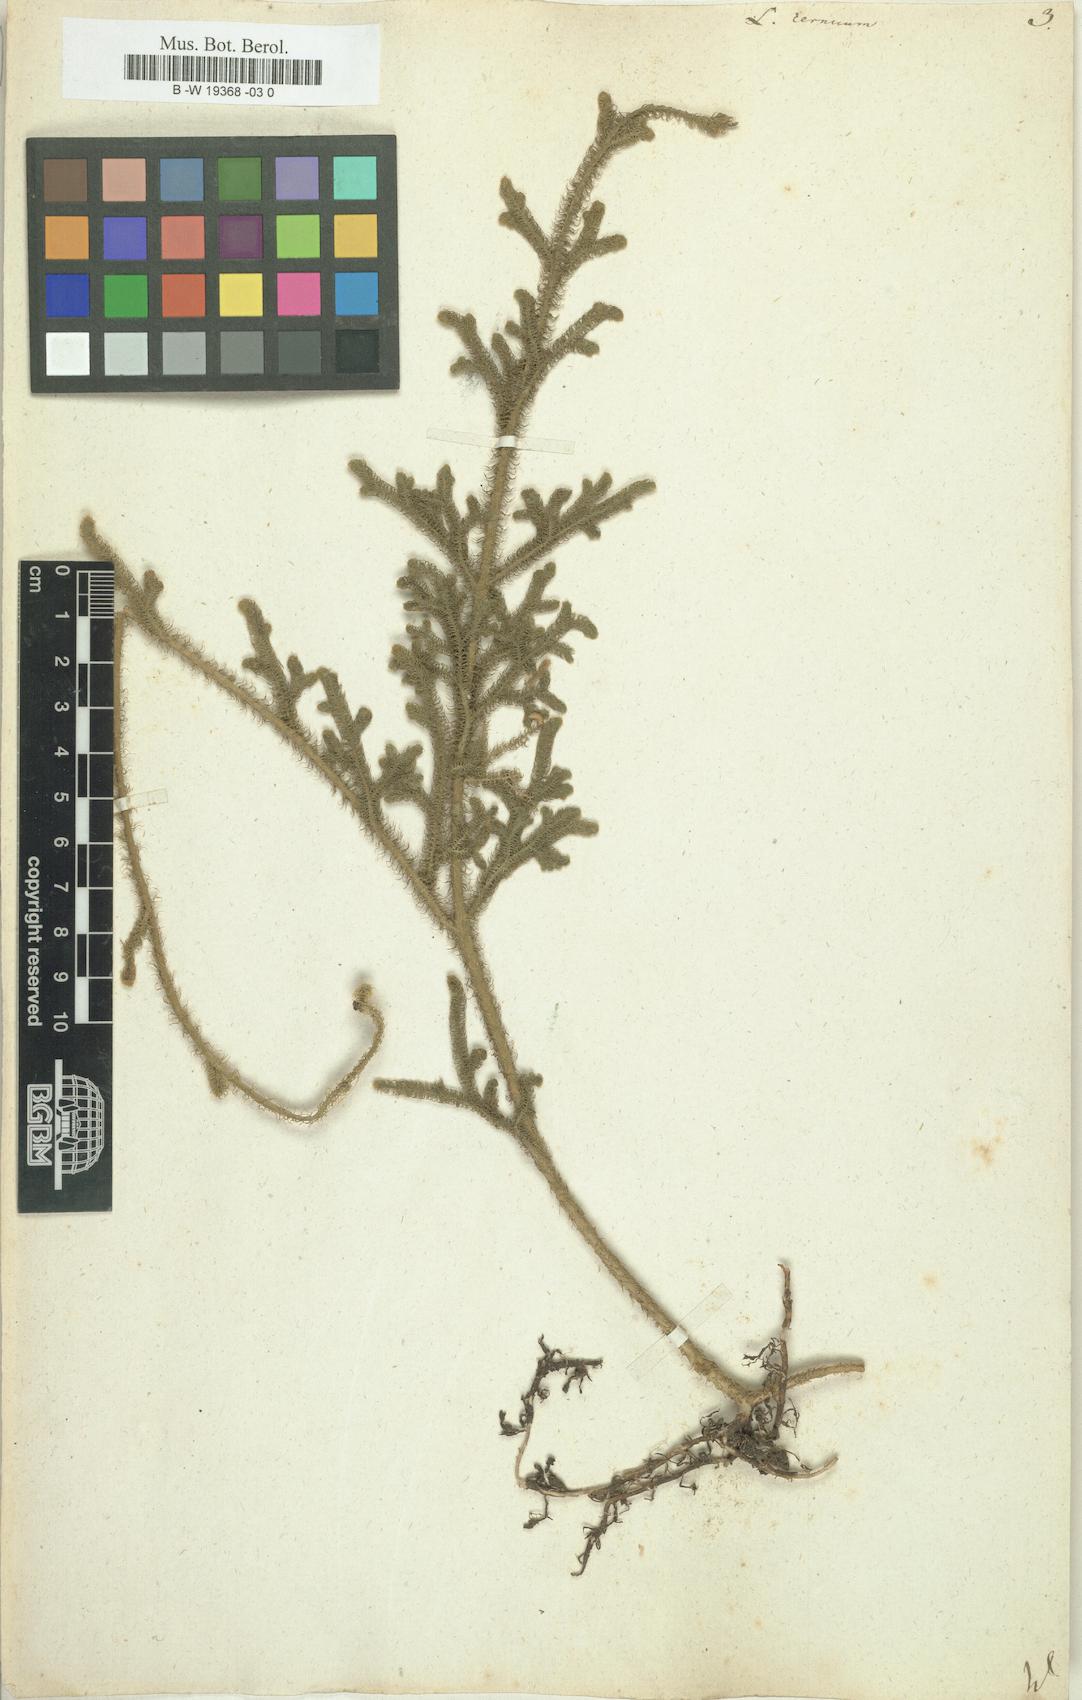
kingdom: Plantae
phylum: Tracheophyta
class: Lycopodiopsida
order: Lycopodiales
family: Lycopodiaceae
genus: Palhinhaea
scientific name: Palhinhaea cernua
